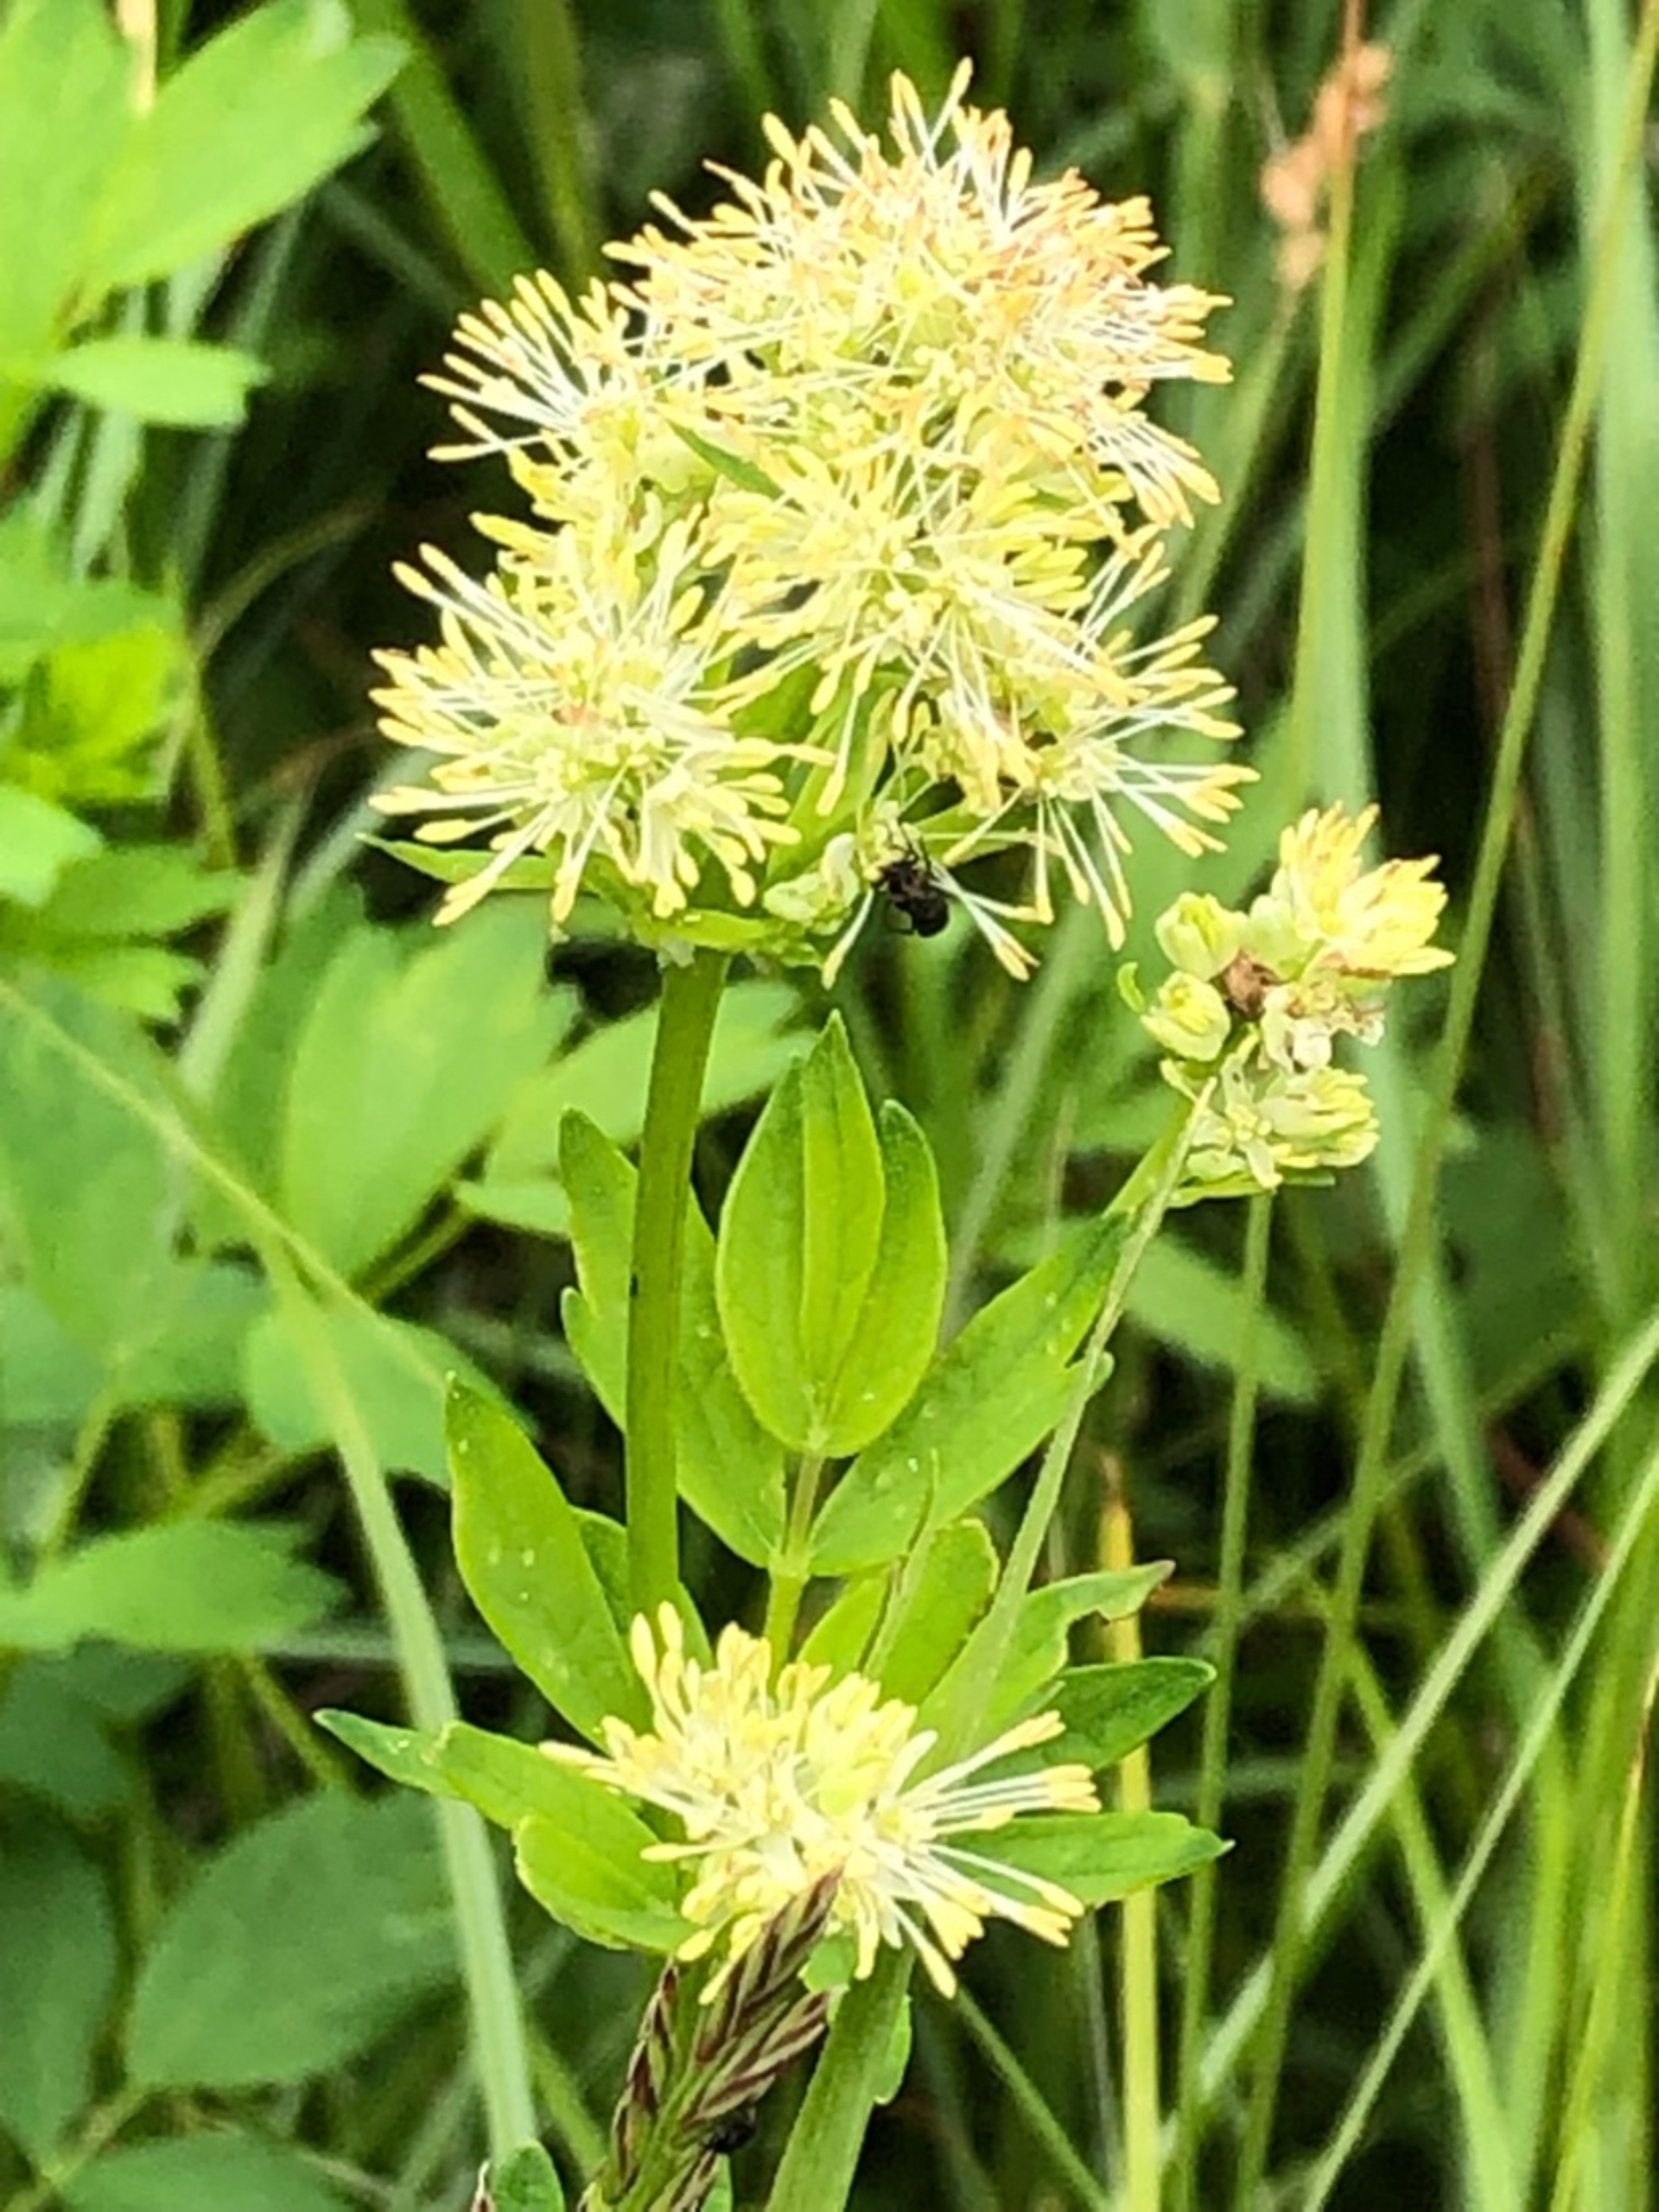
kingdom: Plantae
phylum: Tracheophyta
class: Magnoliopsida
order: Asterales
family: Asteraceae
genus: Jacobaea
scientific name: Jacobaea vulgaris
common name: Eng-brandbæger
